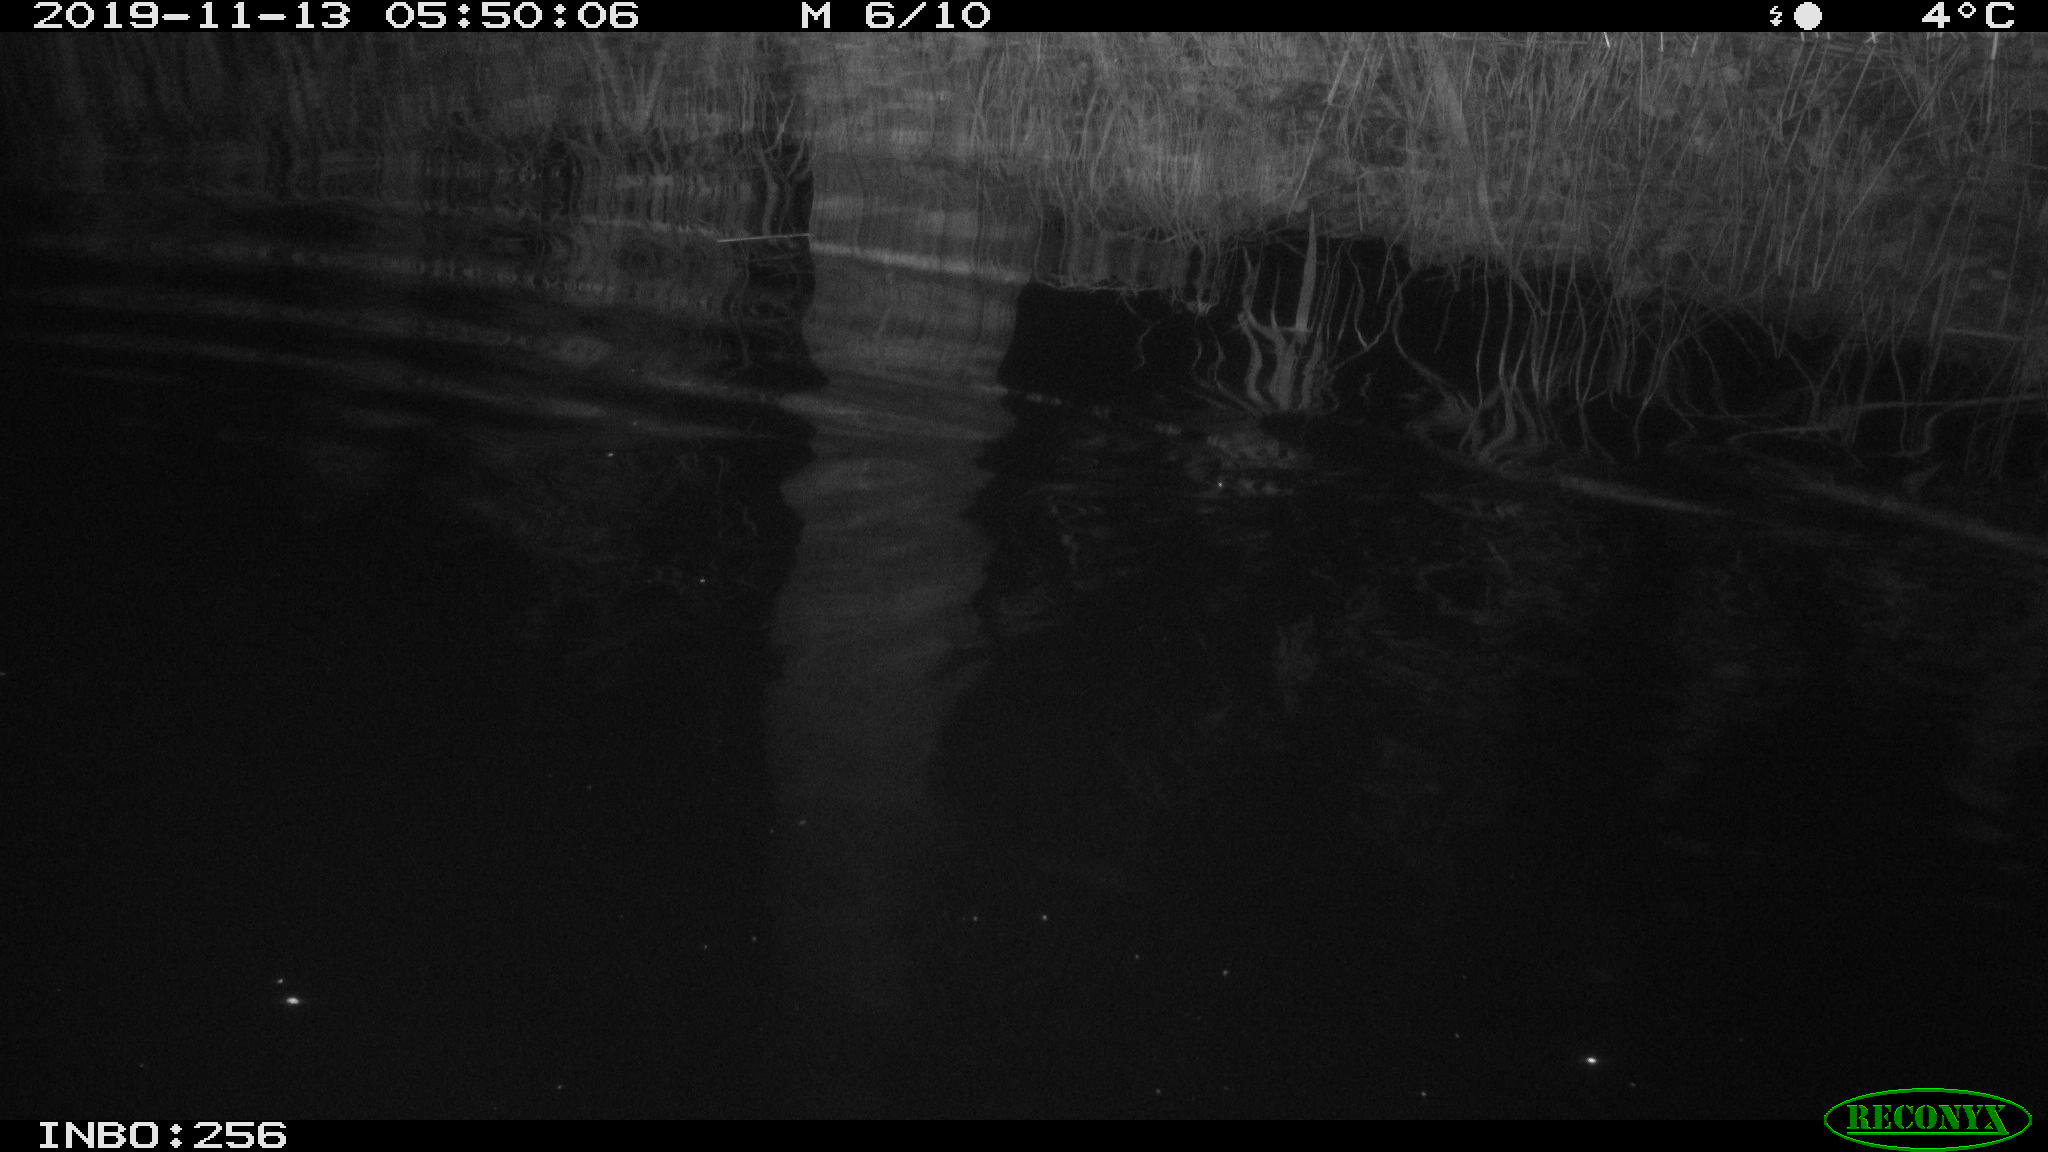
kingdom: Animalia
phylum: Chordata
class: Mammalia
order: Rodentia
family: Muridae
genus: Rattus
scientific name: Rattus norvegicus
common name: Brown rat
